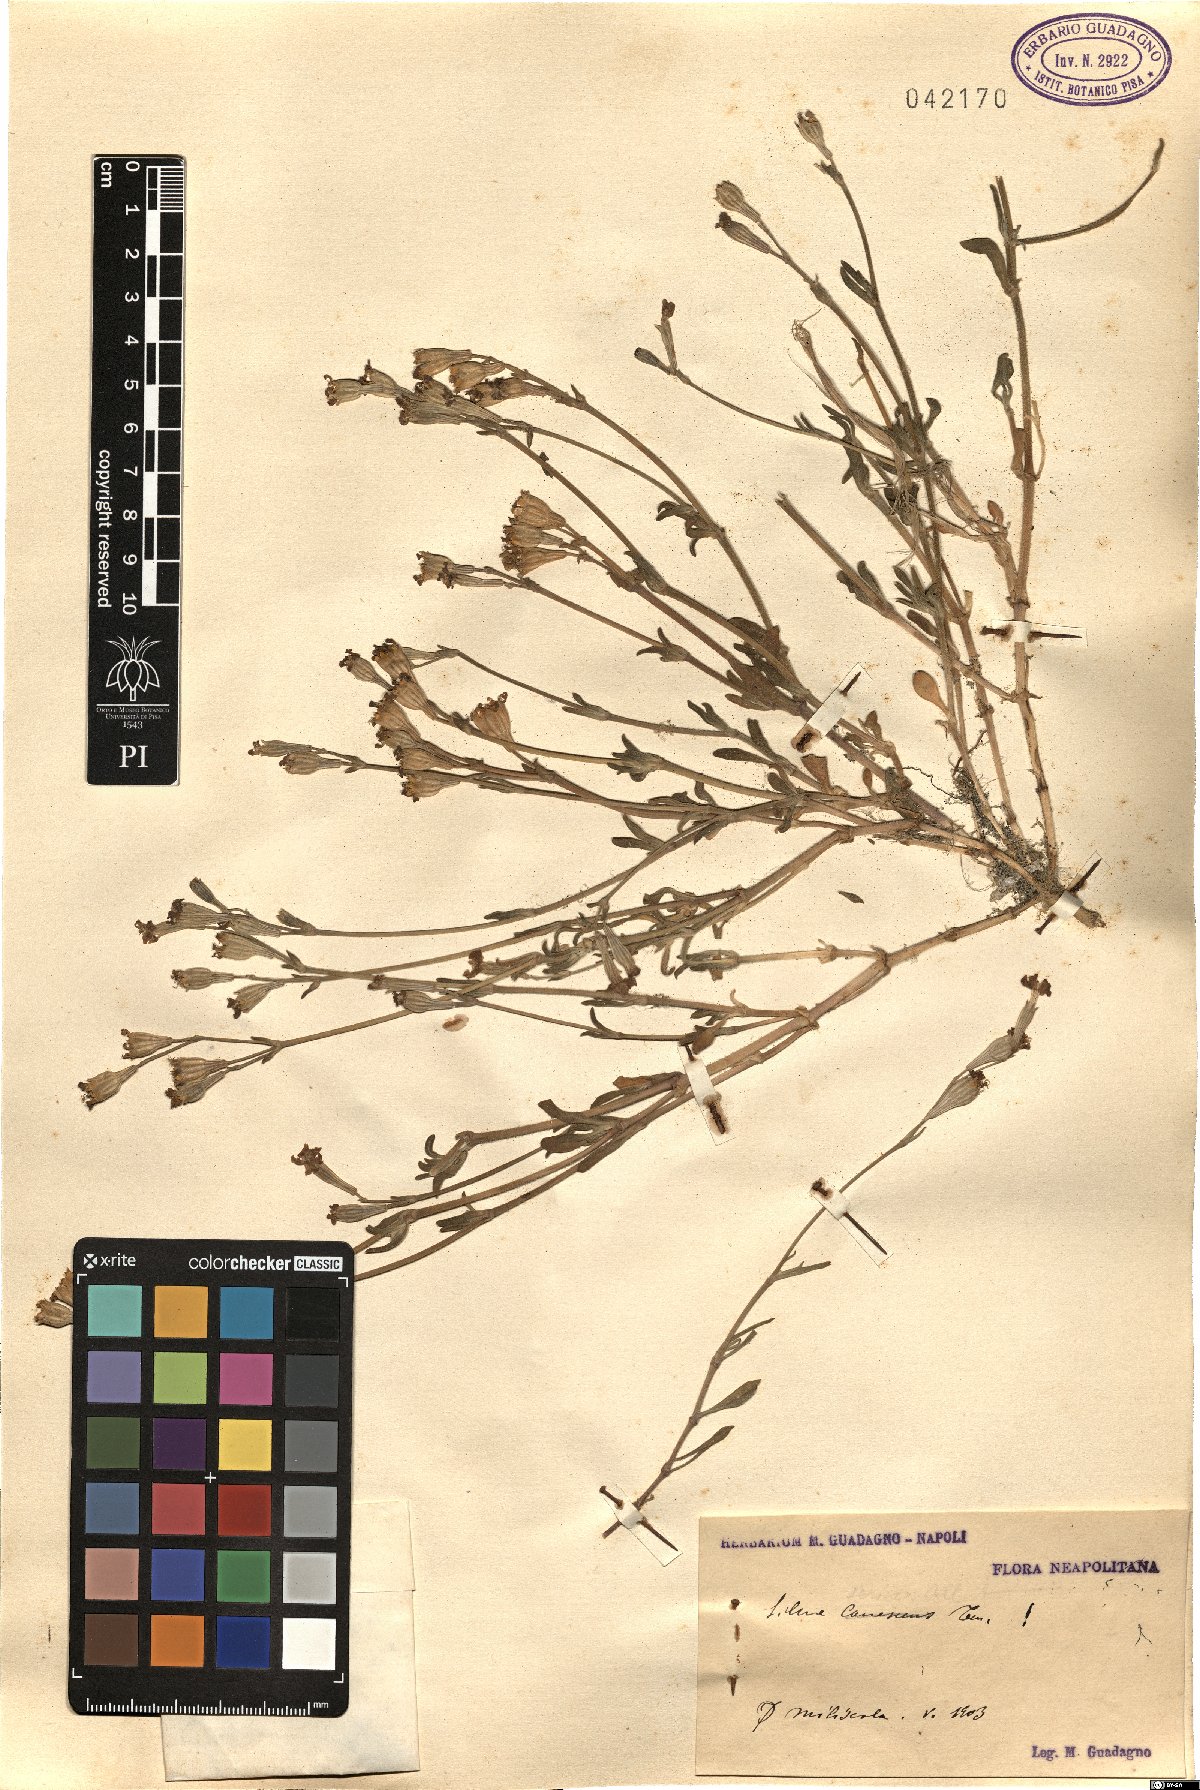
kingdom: Plantae
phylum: Tracheophyta
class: Magnoliopsida
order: Caryophyllales
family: Caryophyllaceae
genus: Silene
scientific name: Silene sericea
